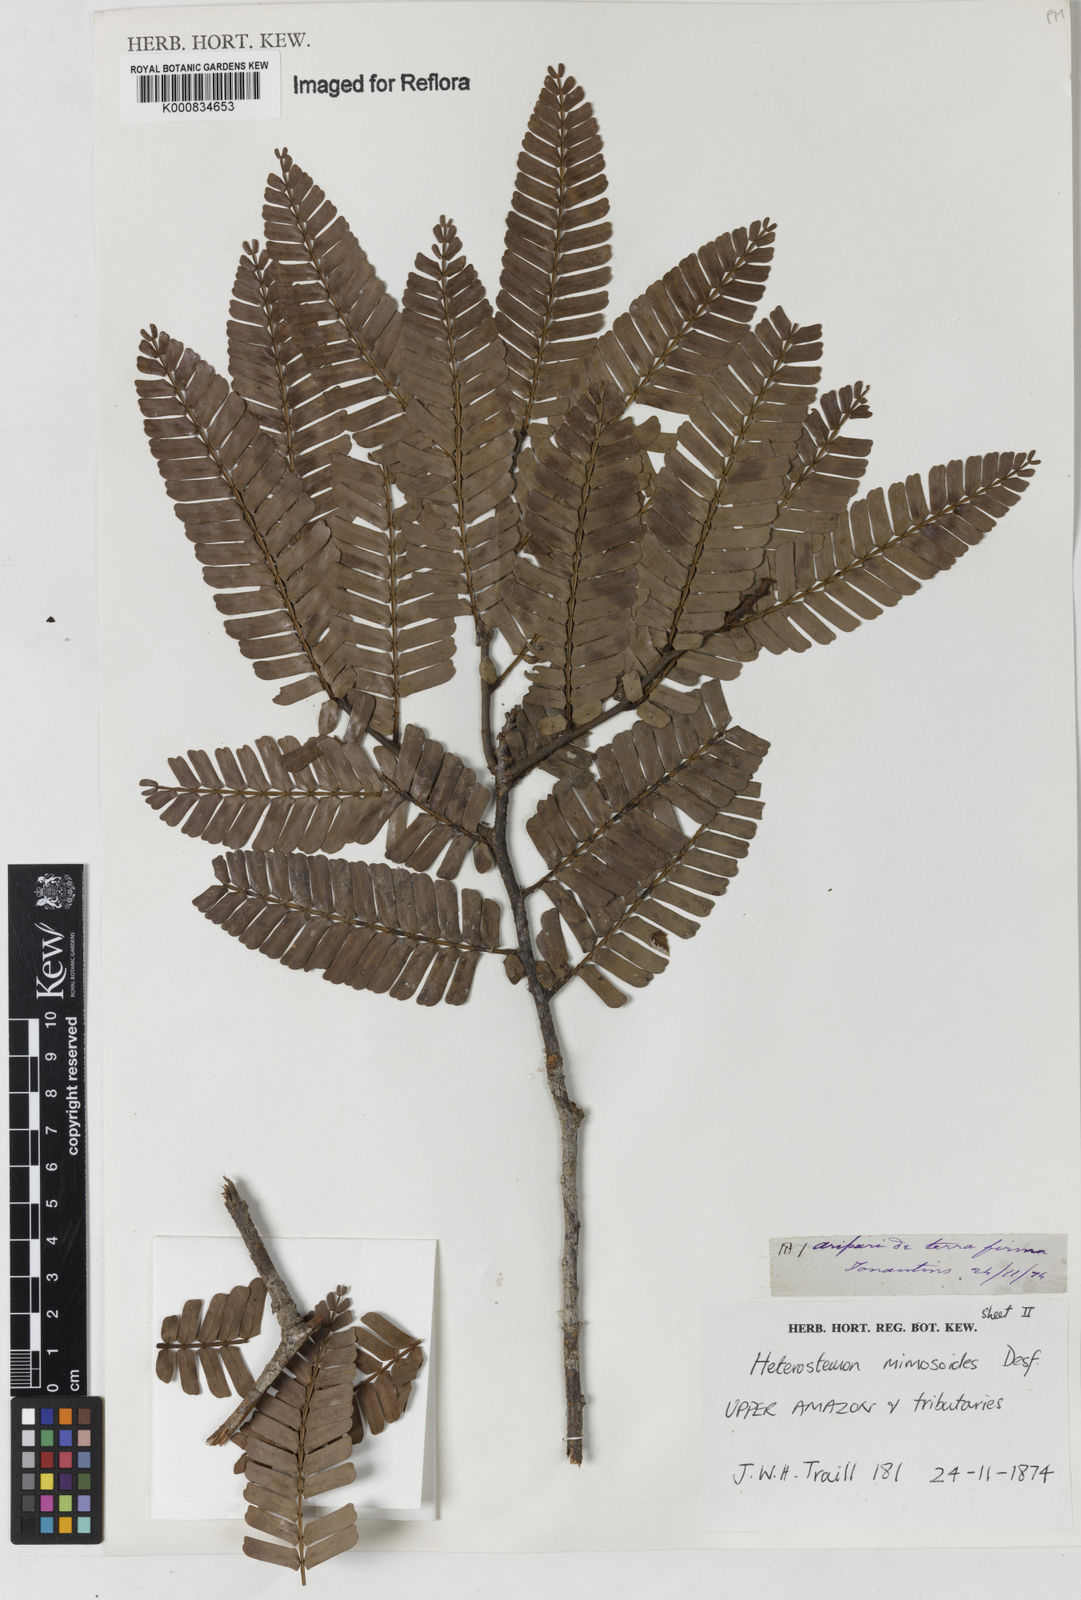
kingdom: Plantae
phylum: Tracheophyta
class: Magnoliopsida
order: Fabales
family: Fabaceae
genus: Heterostemon
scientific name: Heterostemon mimosoides
